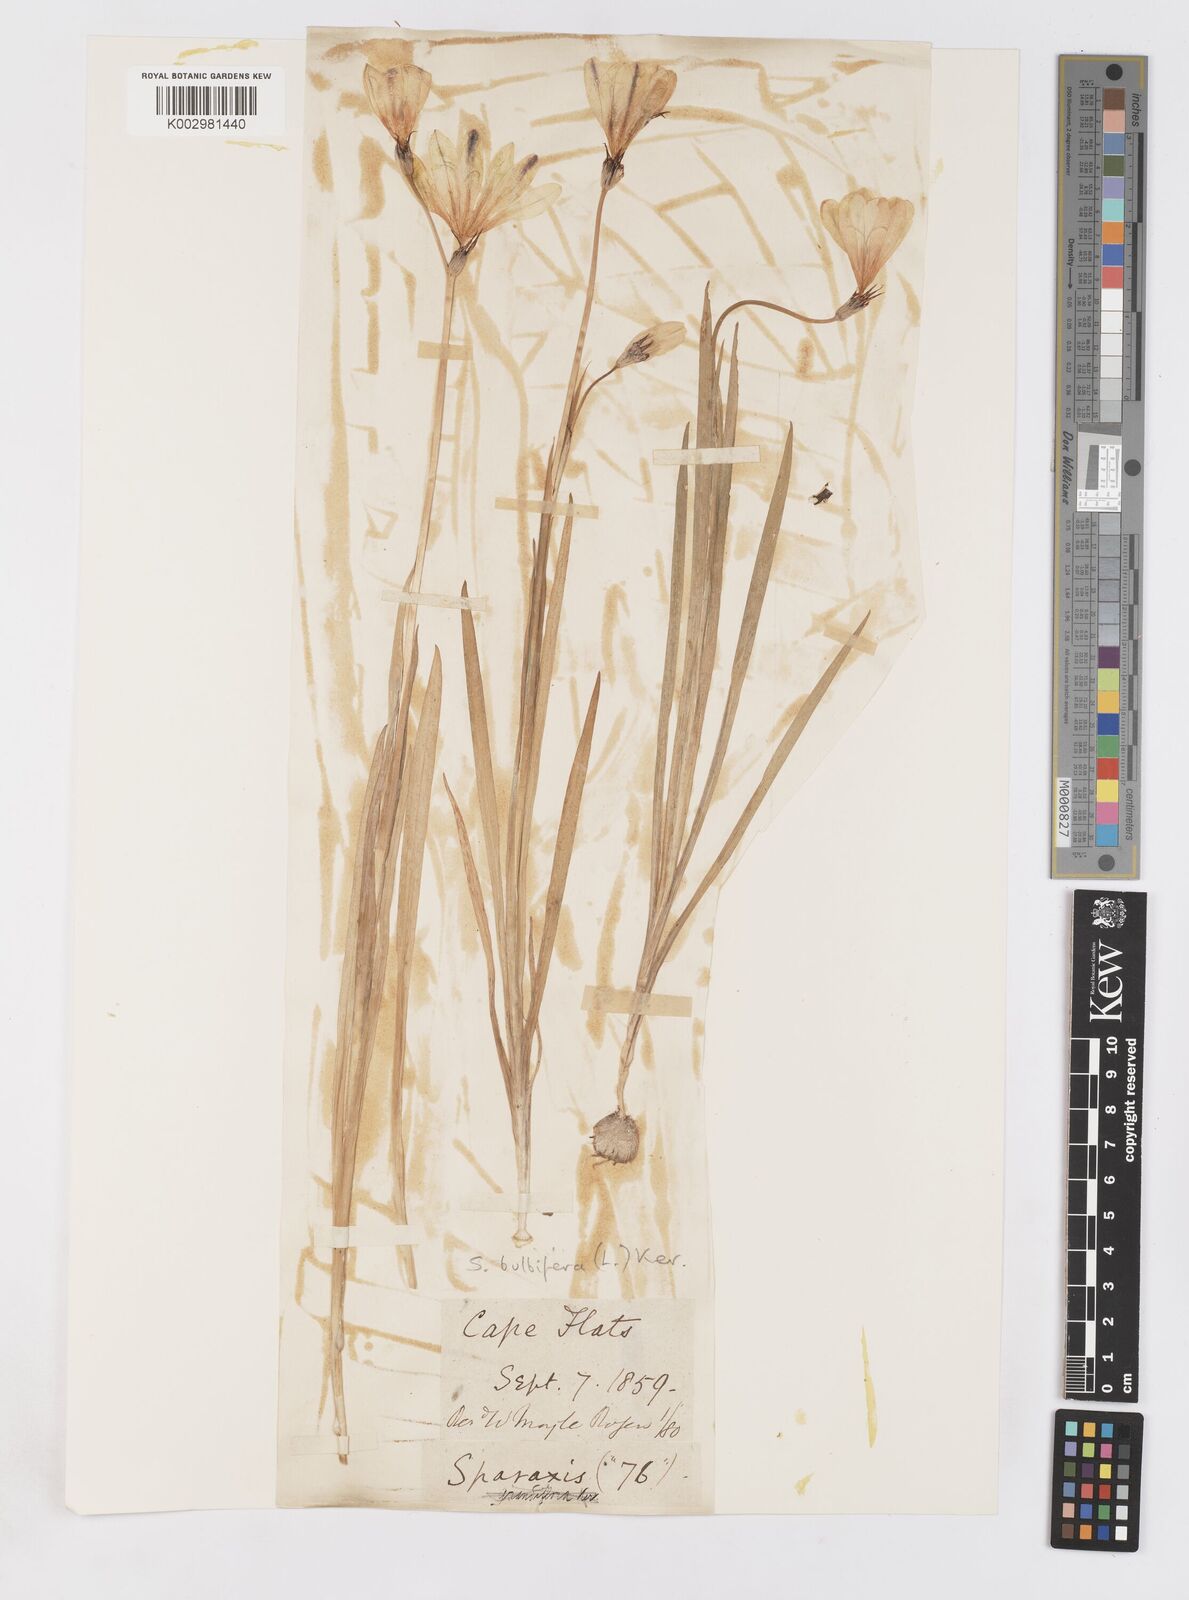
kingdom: Plantae
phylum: Tracheophyta
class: Liliopsida
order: Asparagales
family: Iridaceae
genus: Sparaxis
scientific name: Sparaxis bulbifera
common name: Harlequin-flower
